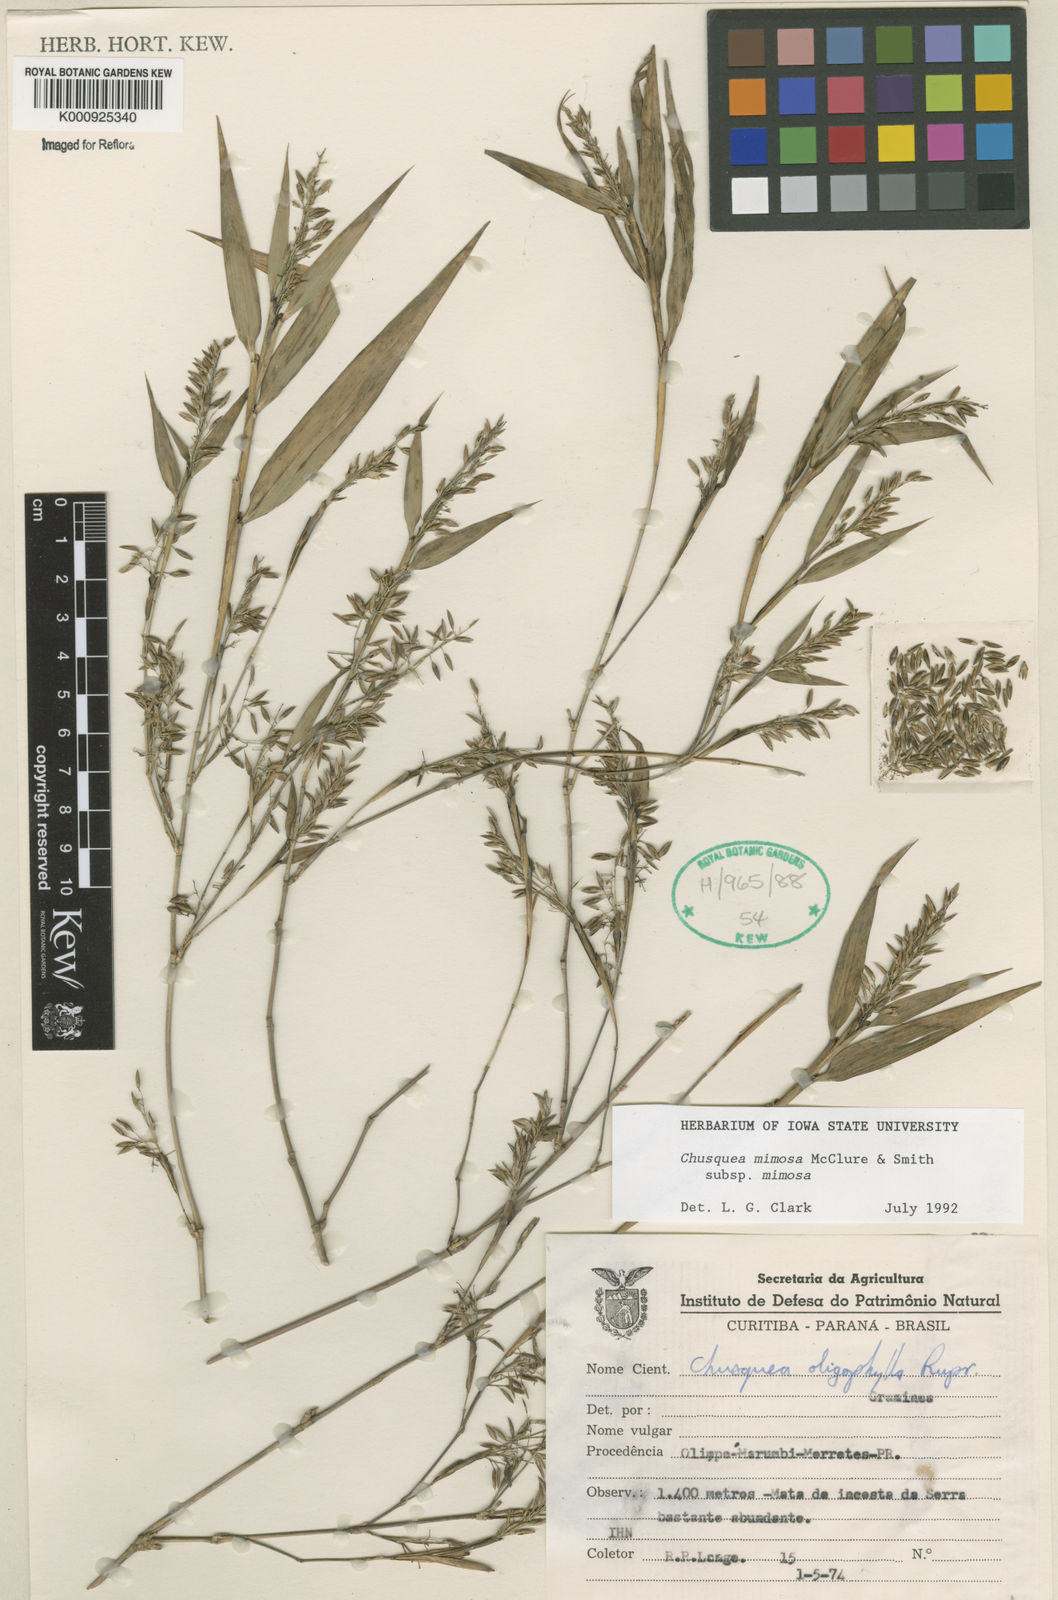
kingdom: Plantae
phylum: Tracheophyta
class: Liliopsida
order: Poales
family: Poaceae
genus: Chusquea
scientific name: Chusquea mimosa
